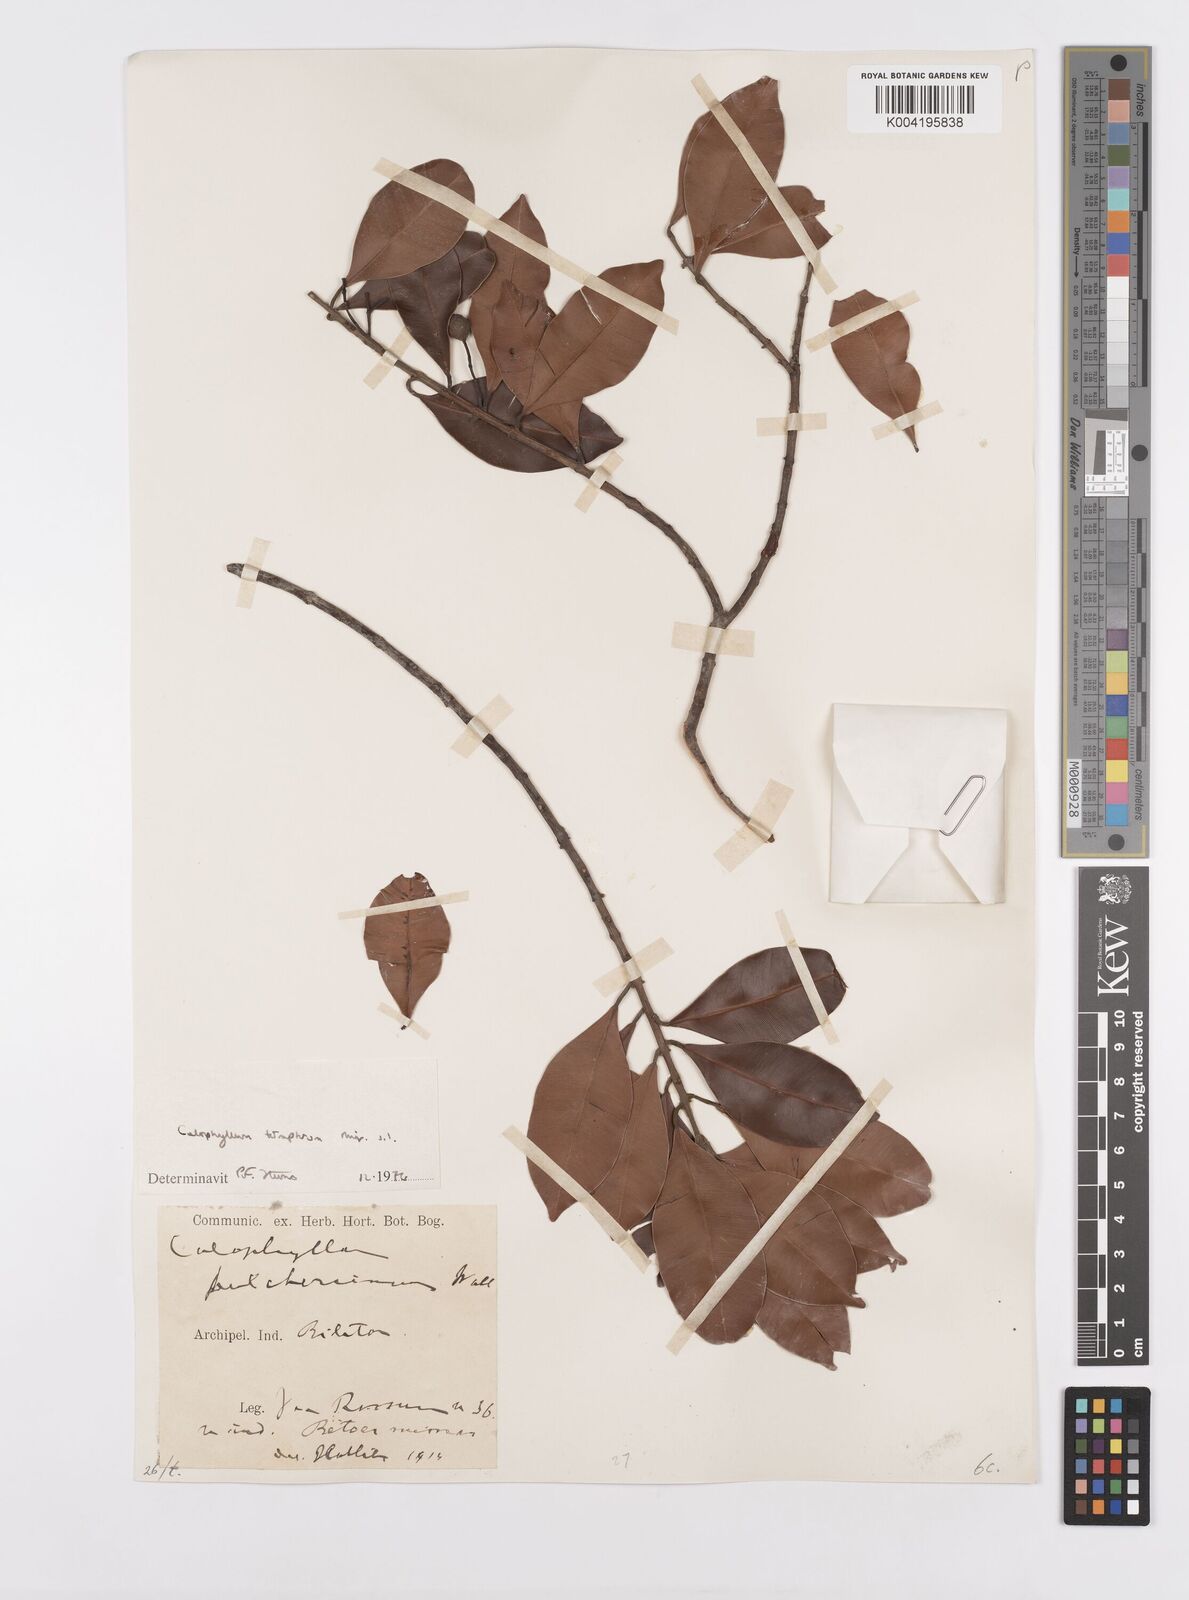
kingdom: Plantae
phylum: Tracheophyta
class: Magnoliopsida
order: Malpighiales
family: Calophyllaceae
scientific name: Calophyllaceae
